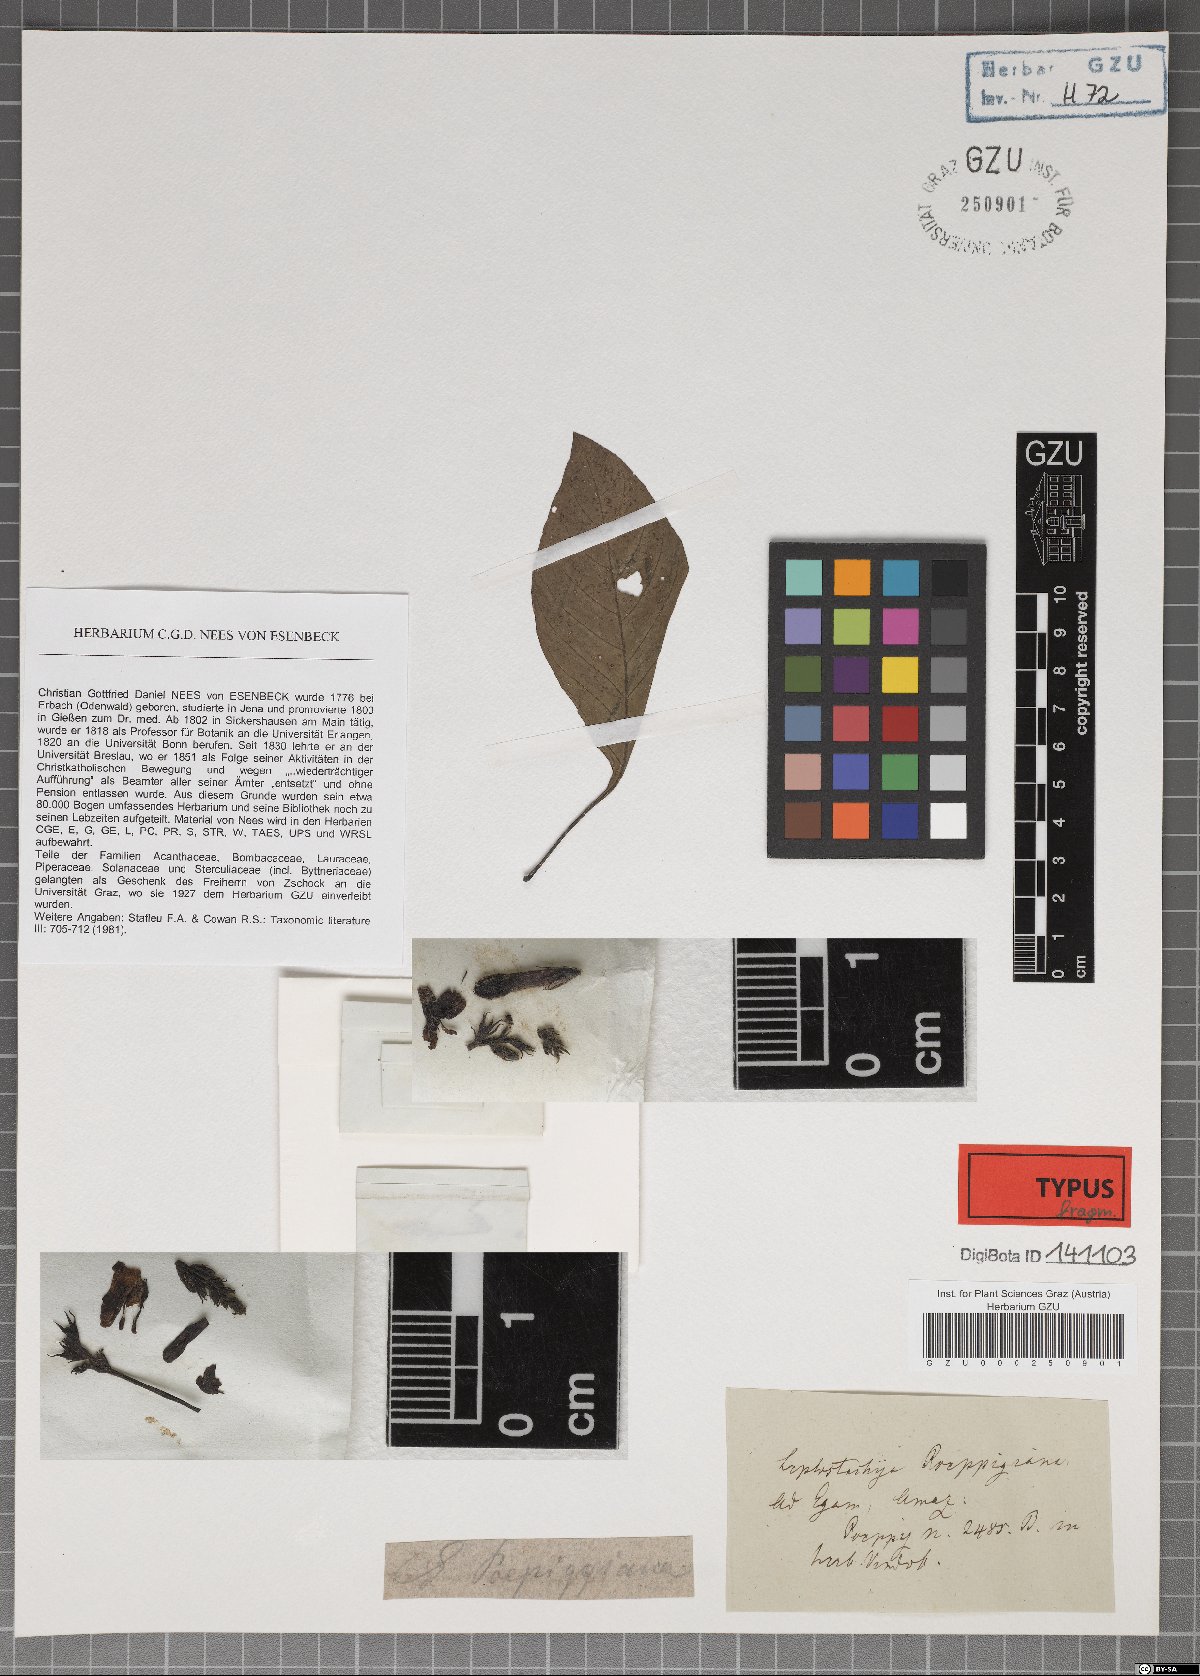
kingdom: Plantae
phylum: Tracheophyta
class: Magnoliopsida
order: Lamiales
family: Acanthaceae
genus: Justicia
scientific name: Justicia poeppigiana
